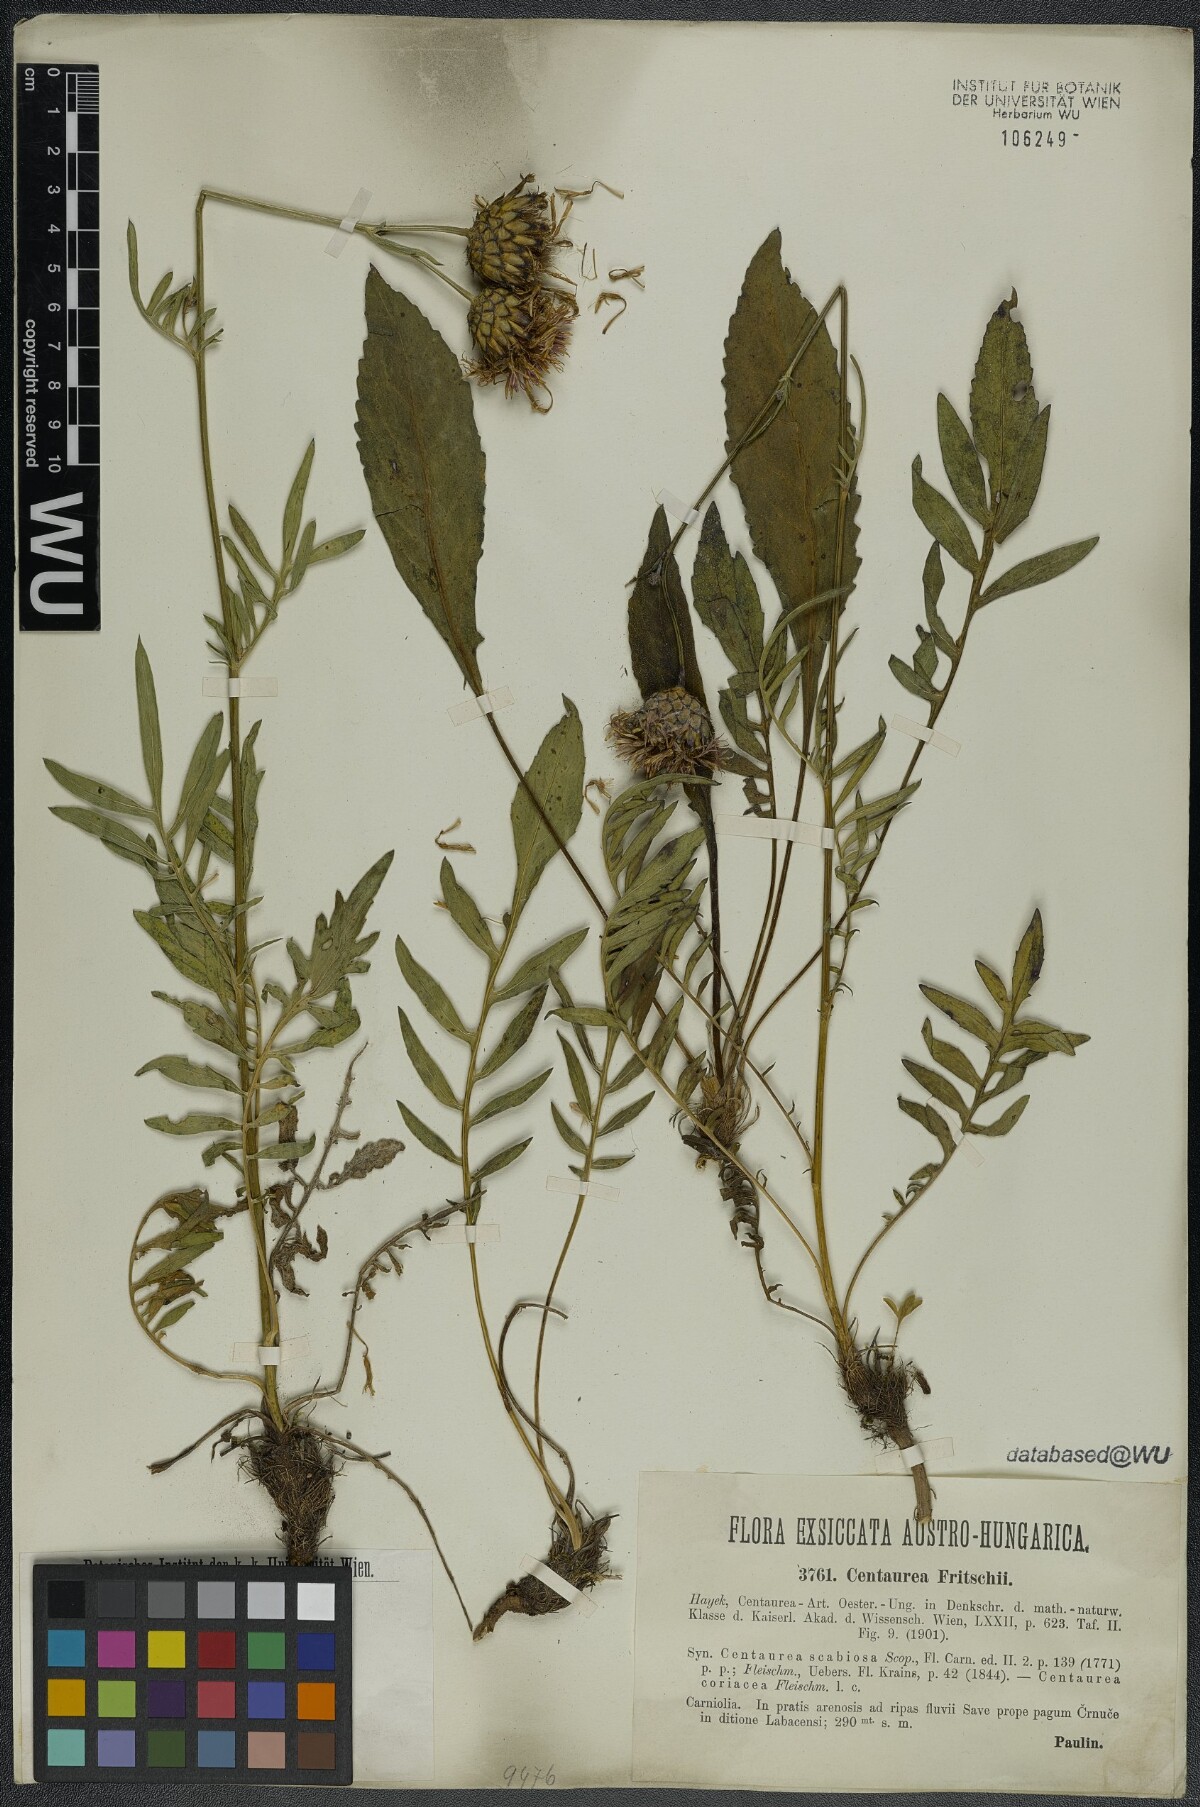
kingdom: Plantae
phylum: Tracheophyta
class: Magnoliopsida
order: Asterales
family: Asteraceae
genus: Centaurea
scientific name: Centaurea scabiosa
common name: Greater knapweed
